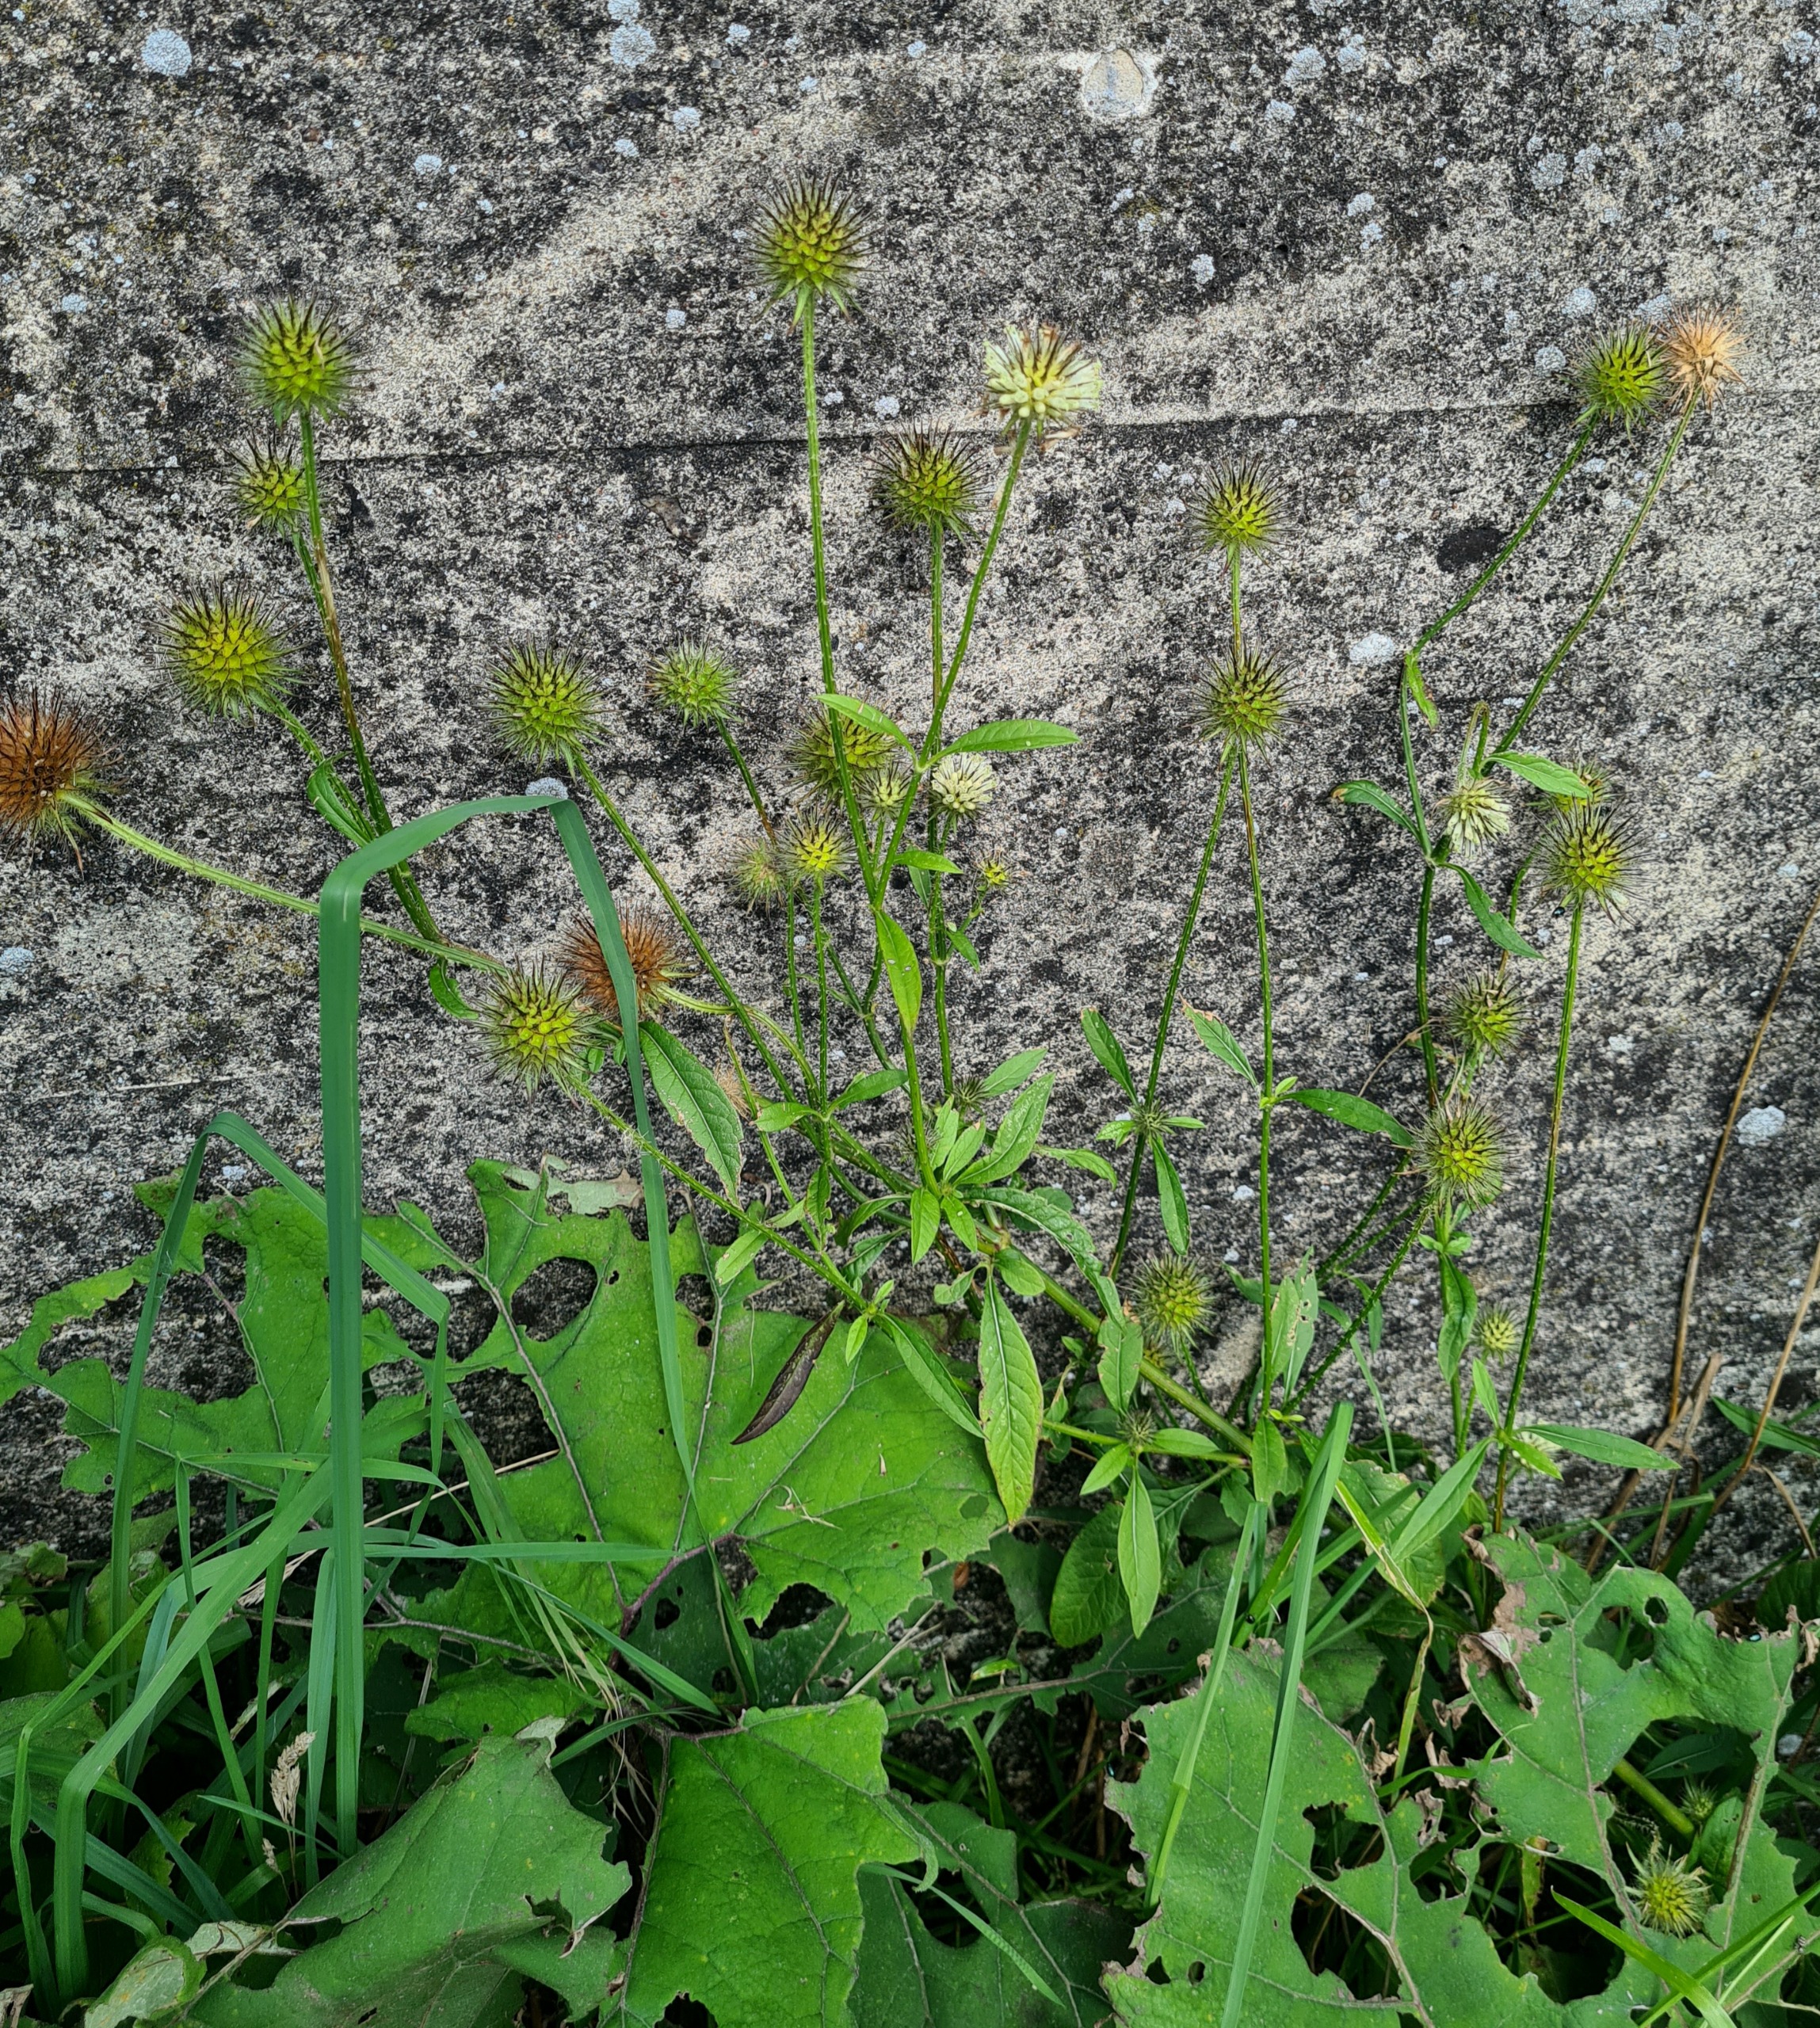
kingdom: Plantae
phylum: Tracheophyta
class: Magnoliopsida
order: Dipsacales
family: Caprifoliaceae
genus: Dipsacus
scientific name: Dipsacus strigosus
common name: Pindsvin-kartebolle
